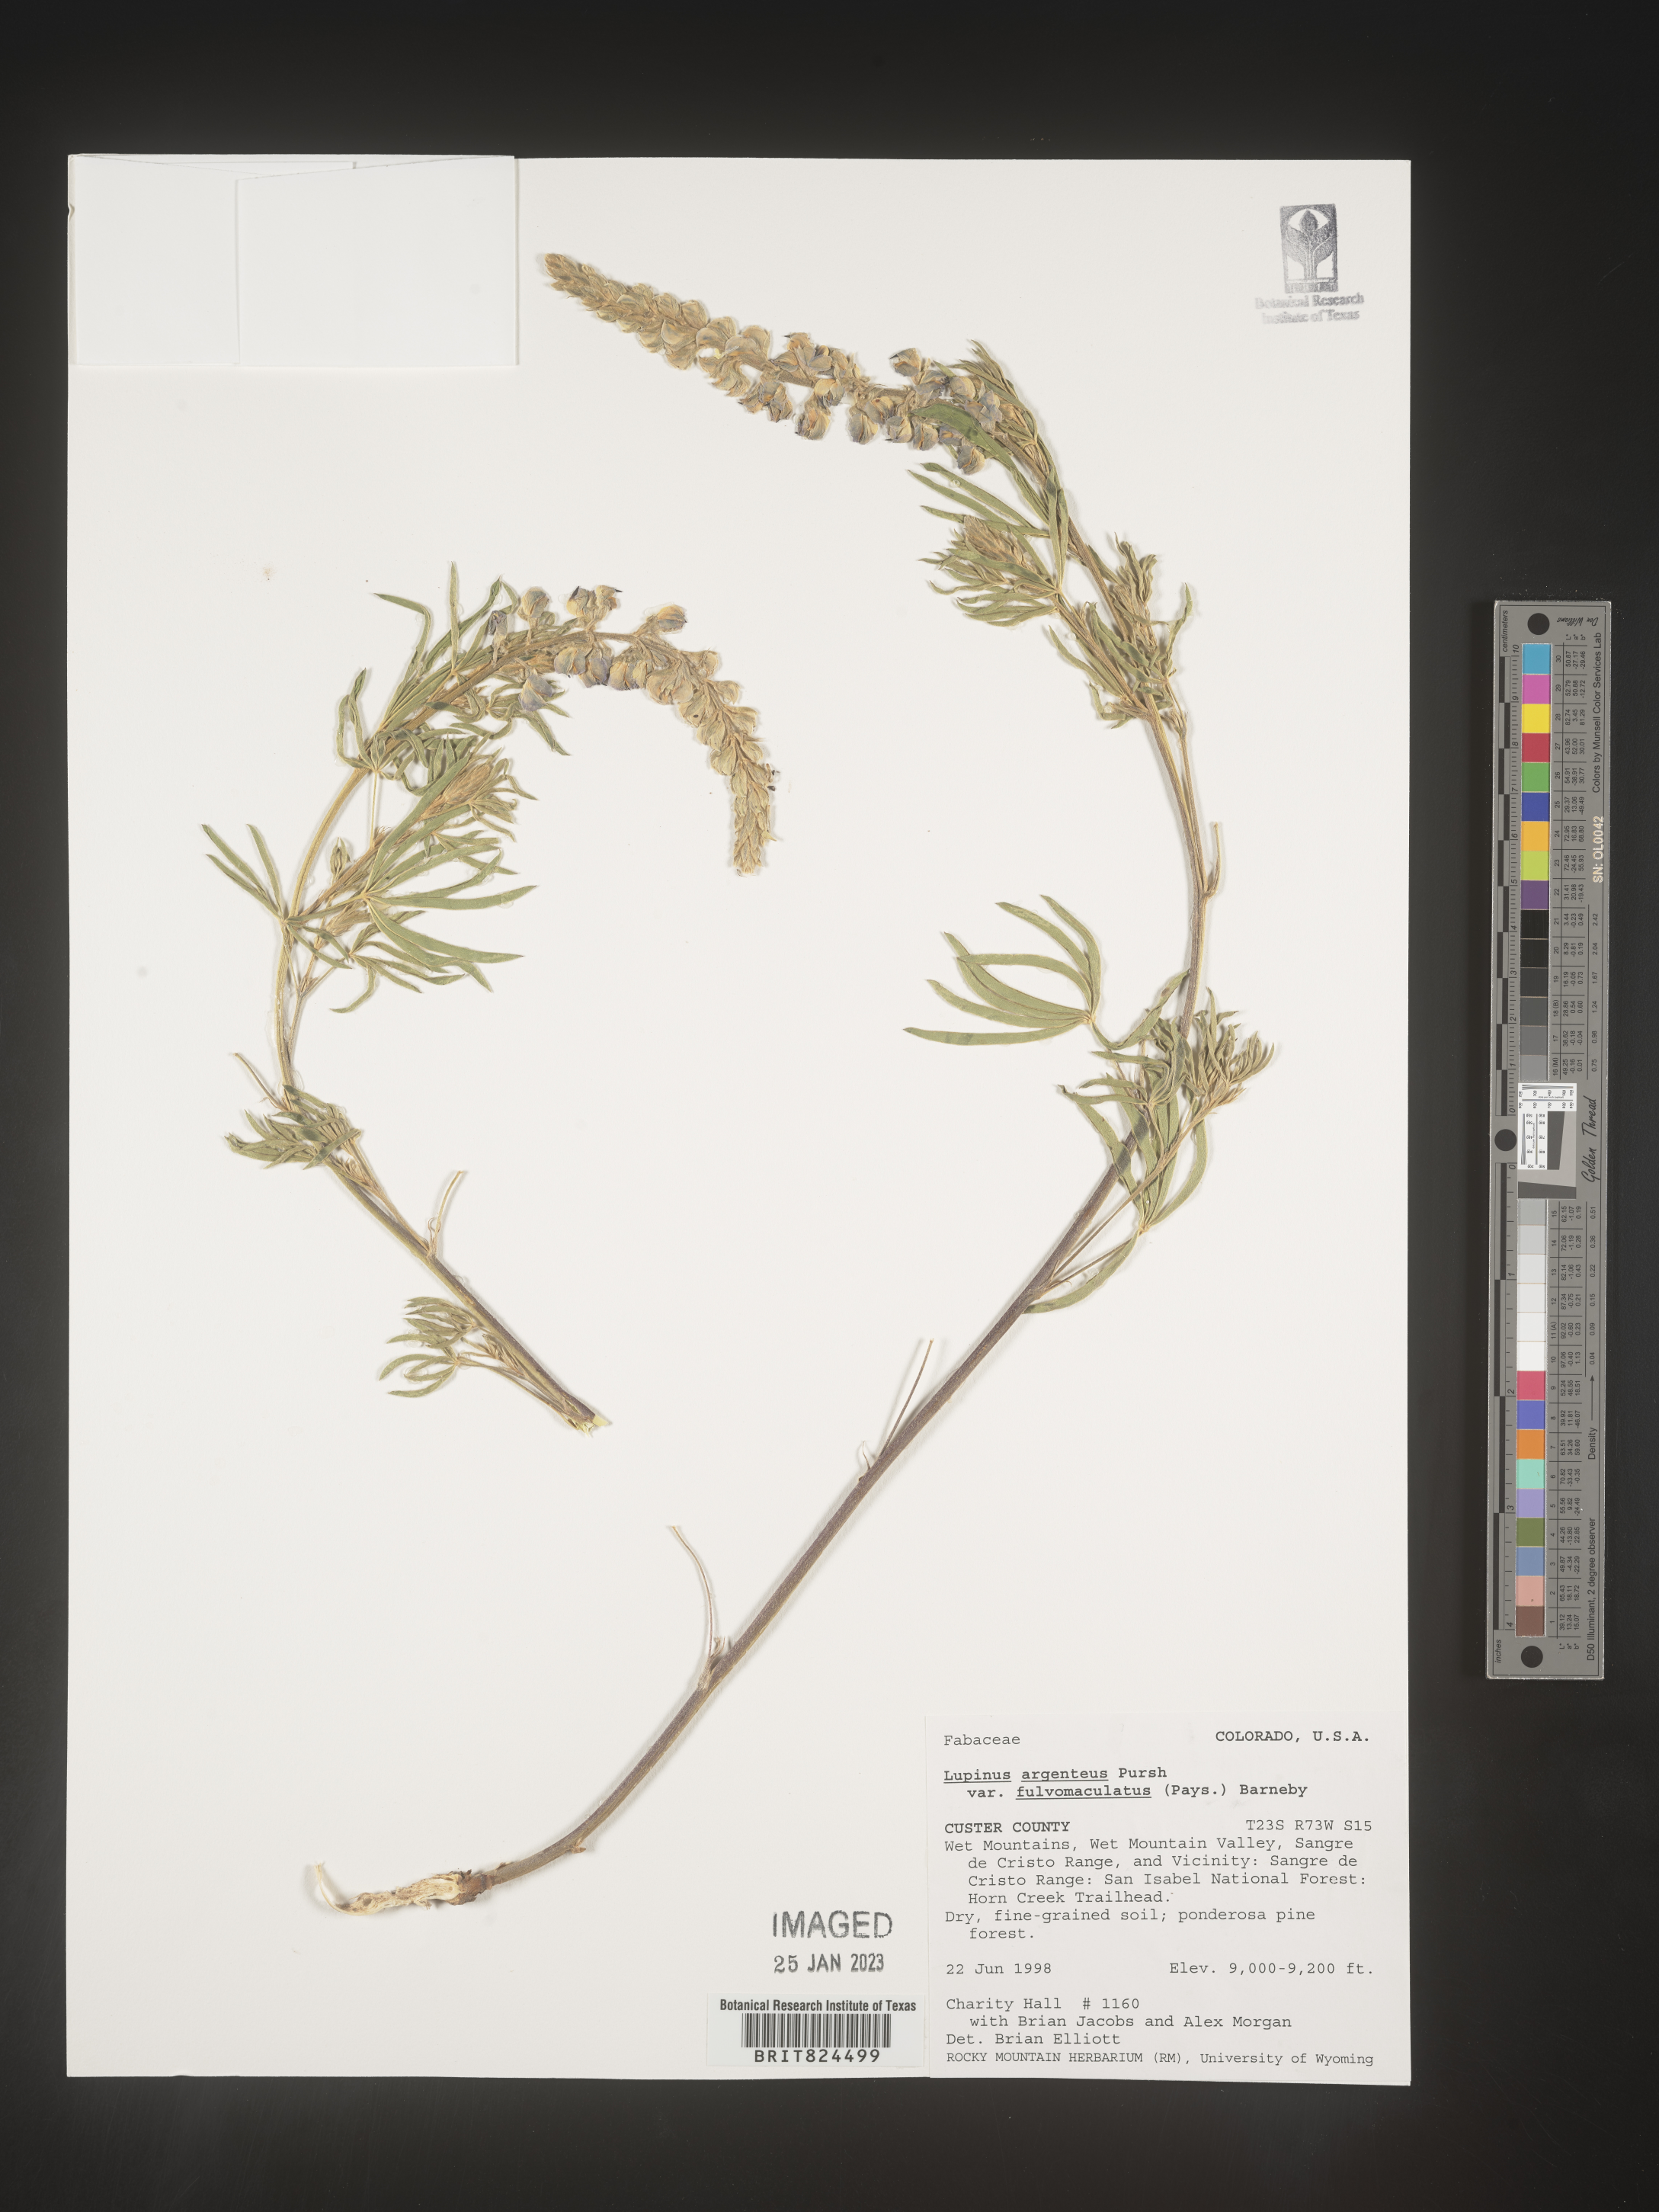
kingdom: Plantae
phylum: Tracheophyta
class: Magnoliopsida
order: Fabales
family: Fabaceae
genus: Lupinus
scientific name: Lupinus argenteus
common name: Silvery lupine
